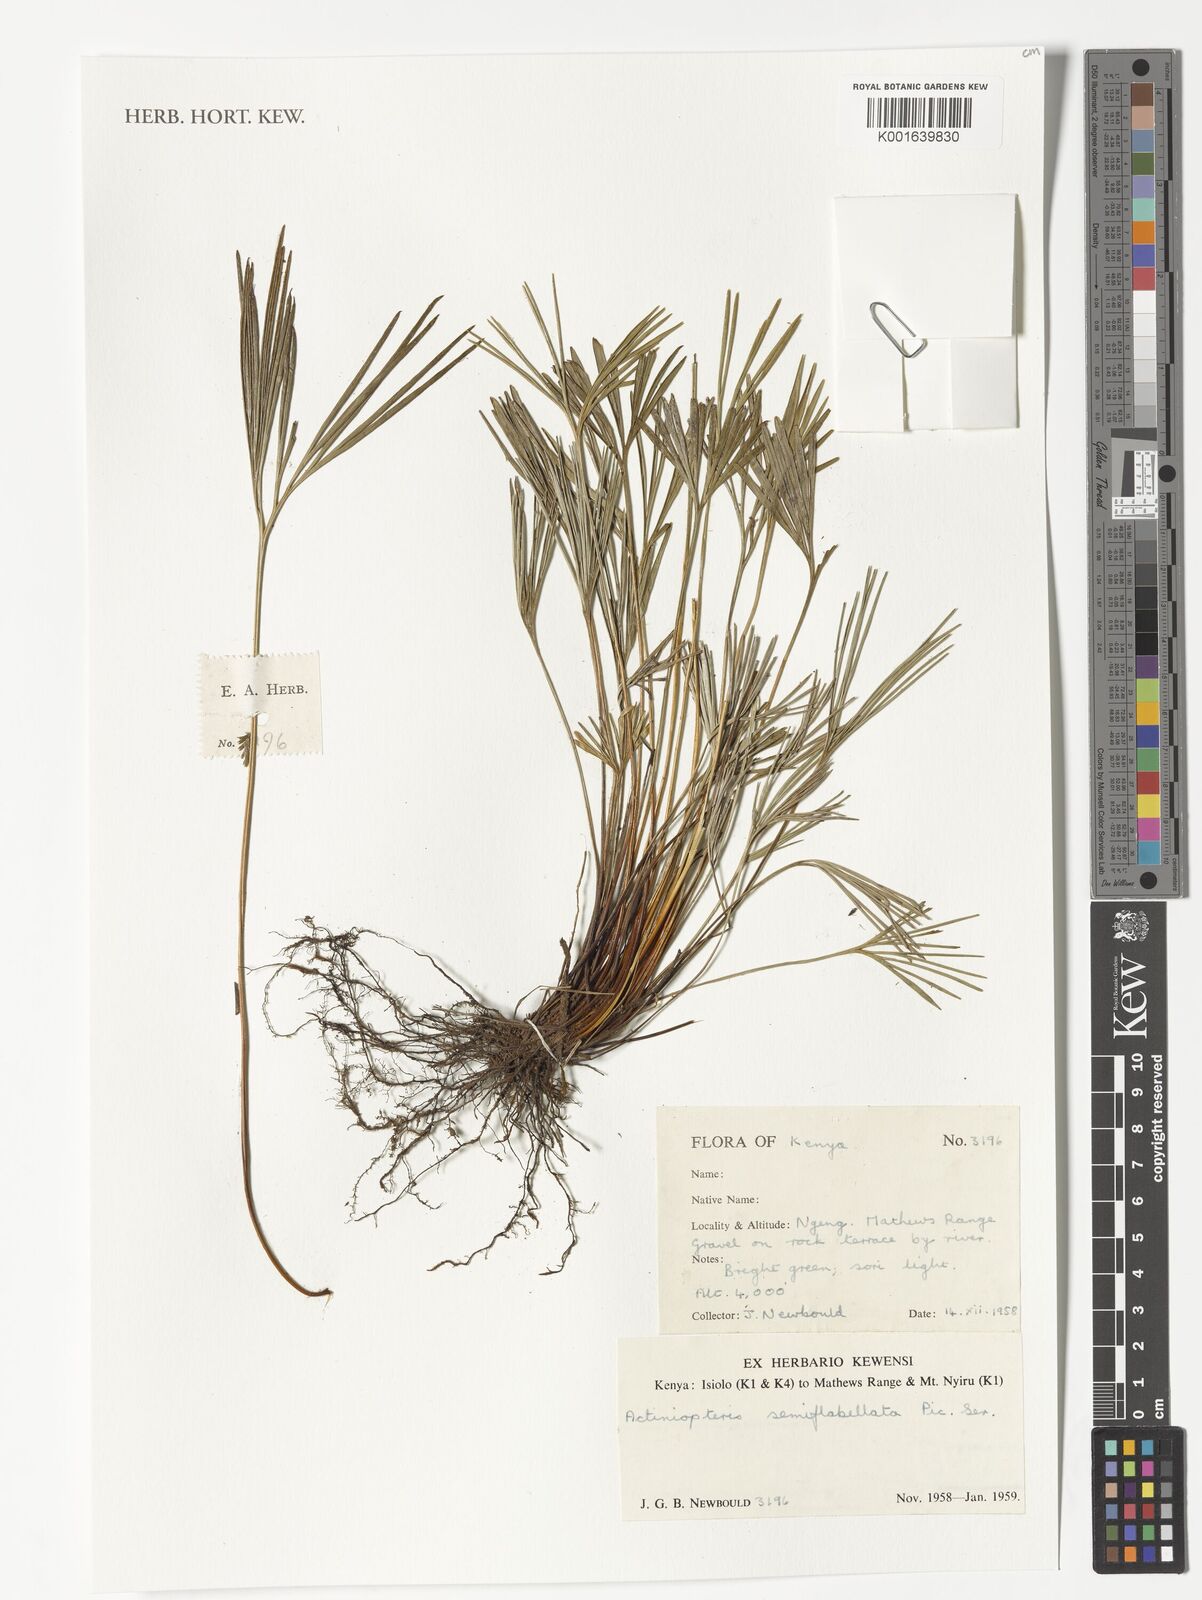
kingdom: Plantae
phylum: Tracheophyta
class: Polypodiopsida
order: Polypodiales
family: Pteridaceae
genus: Actiniopteris
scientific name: Actiniopteris semiflabellata
